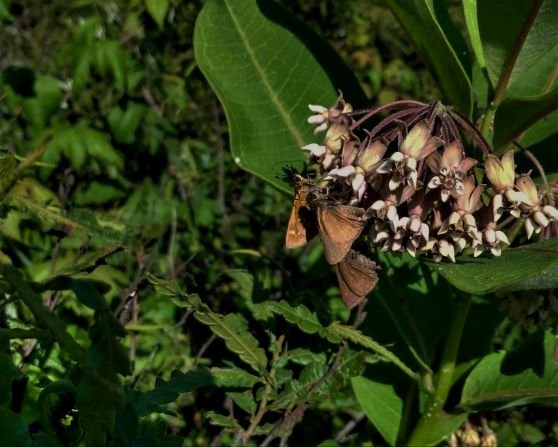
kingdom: Animalia
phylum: Arthropoda
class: Insecta
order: Lepidoptera
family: Hesperiidae
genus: Euphyes
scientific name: Euphyes vestris
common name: Dun Skipper
